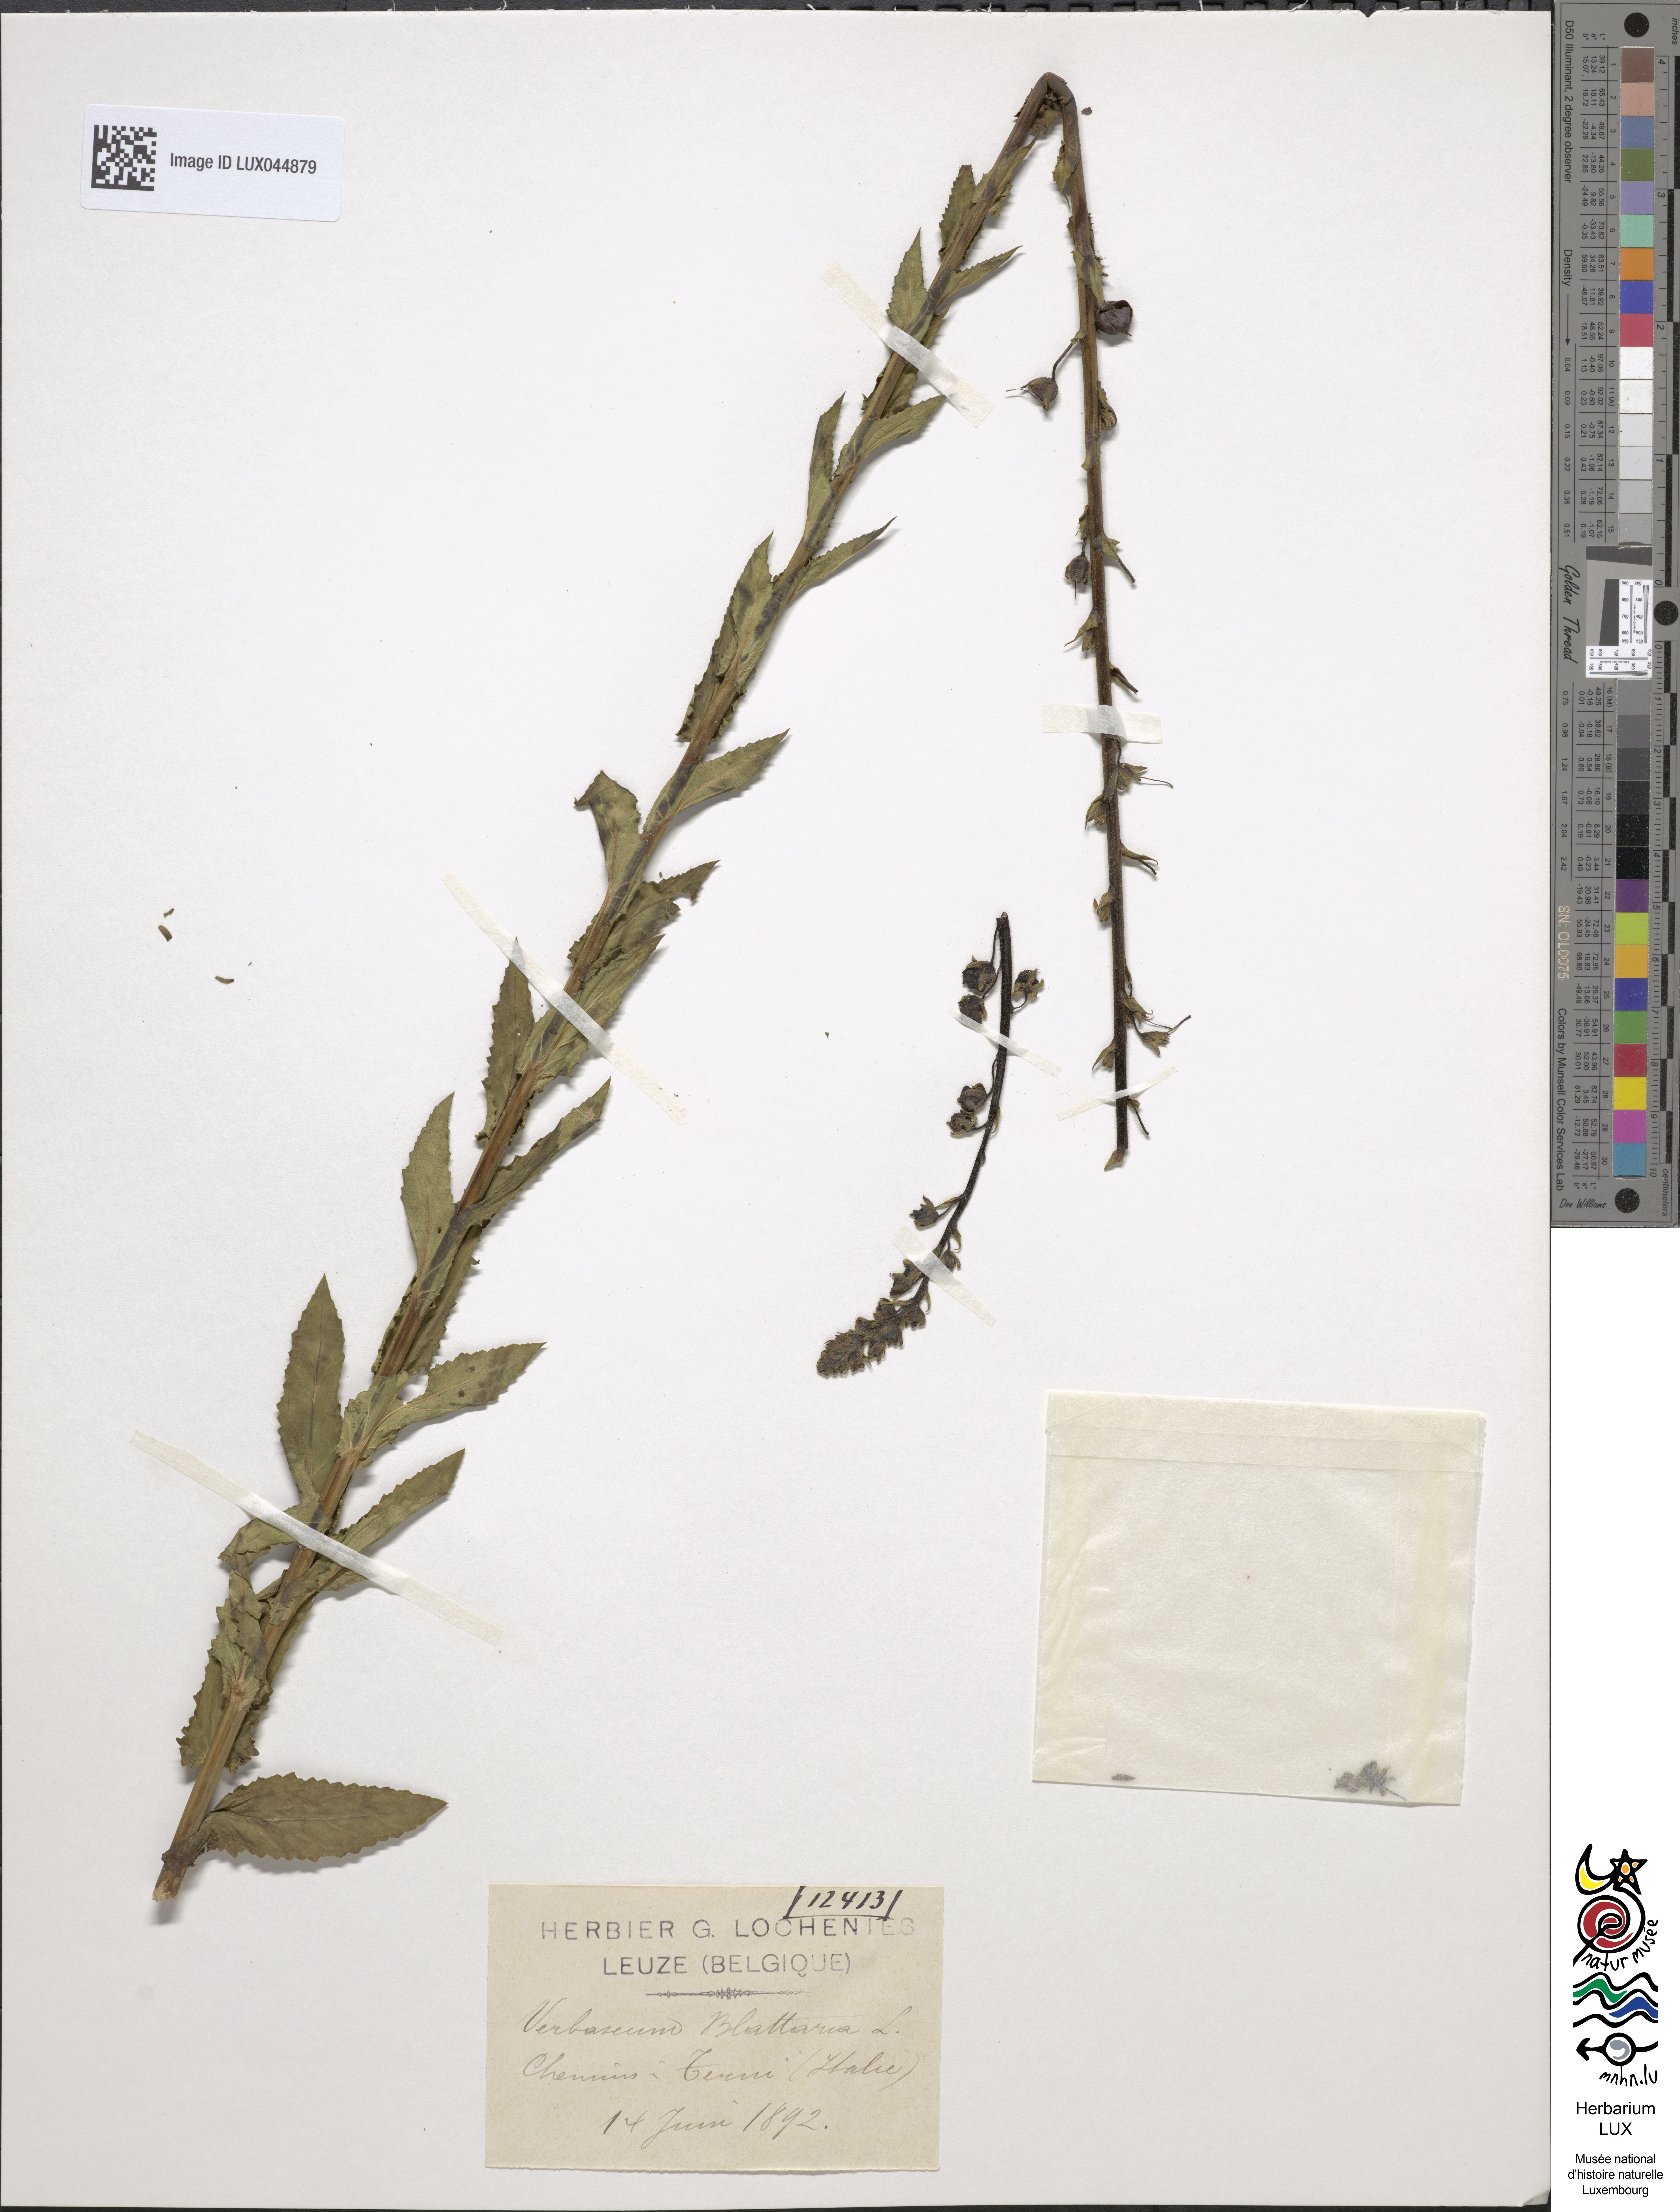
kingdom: Plantae
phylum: Tracheophyta
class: Magnoliopsida
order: Lamiales
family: Scrophulariaceae
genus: Verbascum
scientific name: Verbascum blattaria
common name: Moth mullein
